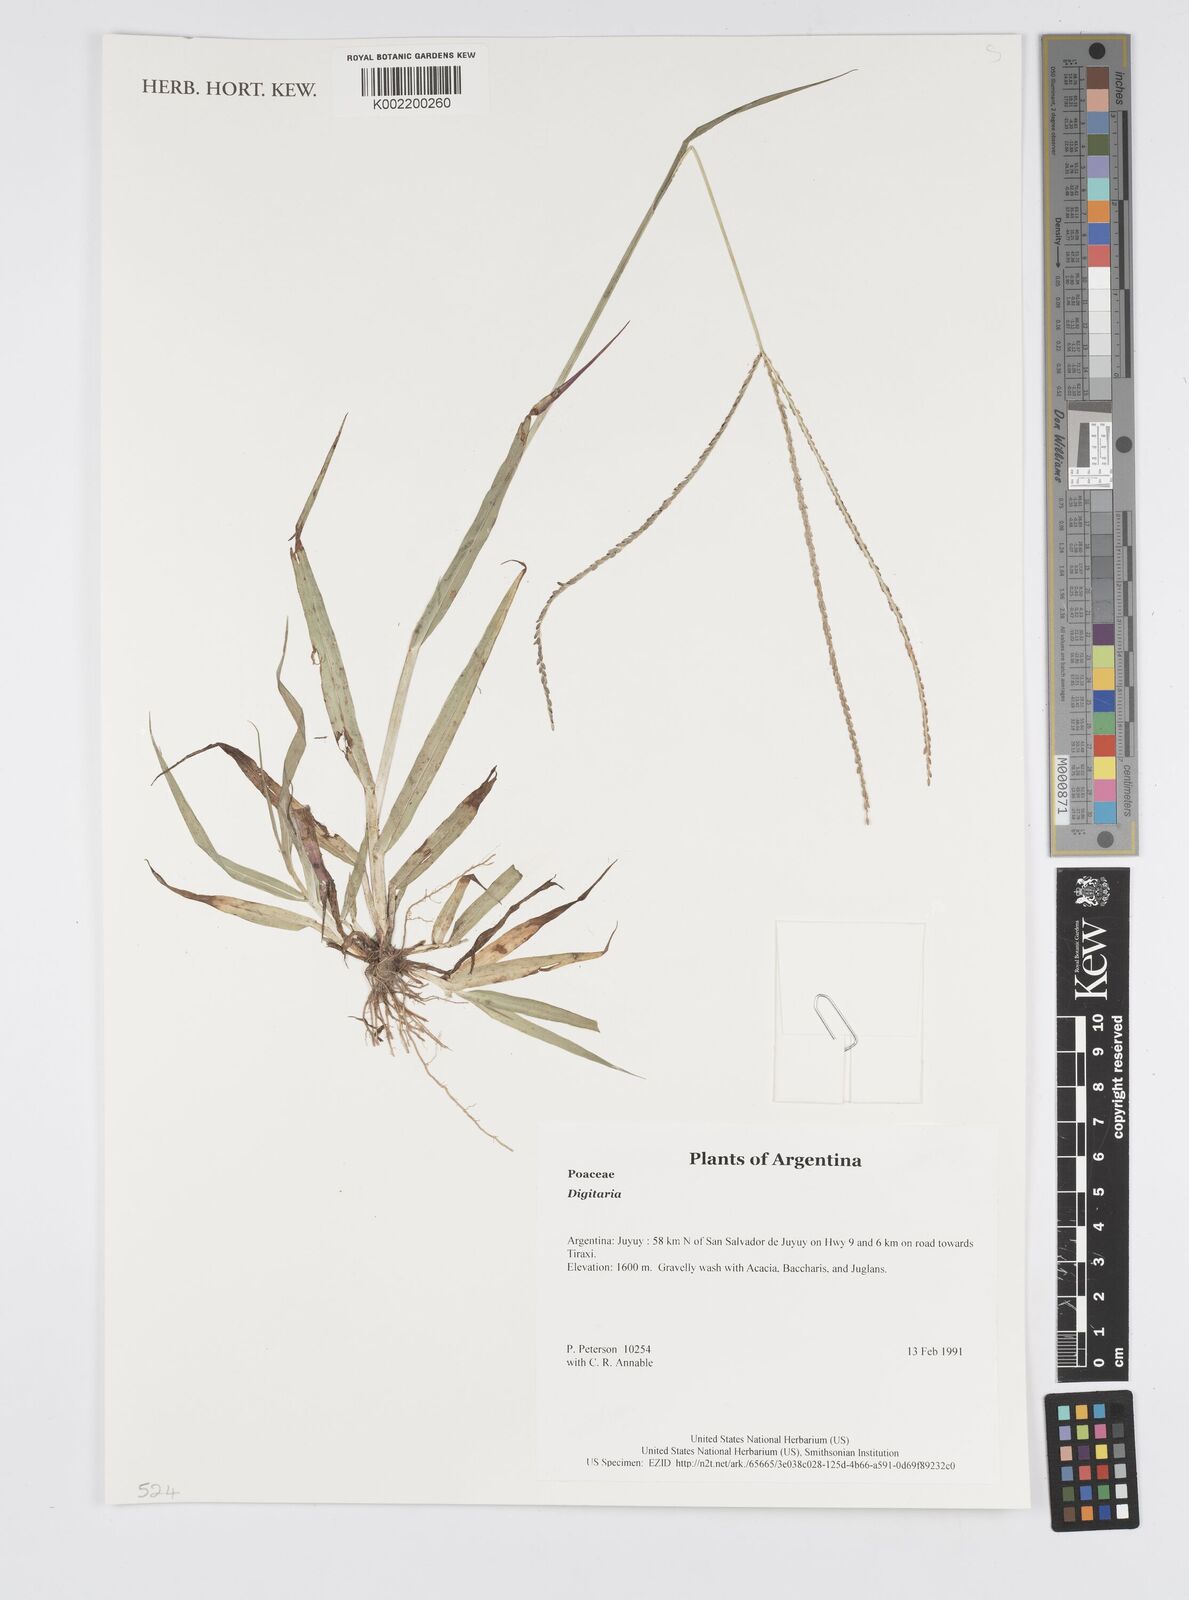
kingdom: Plantae
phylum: Tracheophyta
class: Liliopsida
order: Poales
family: Poaceae
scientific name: Poaceae
